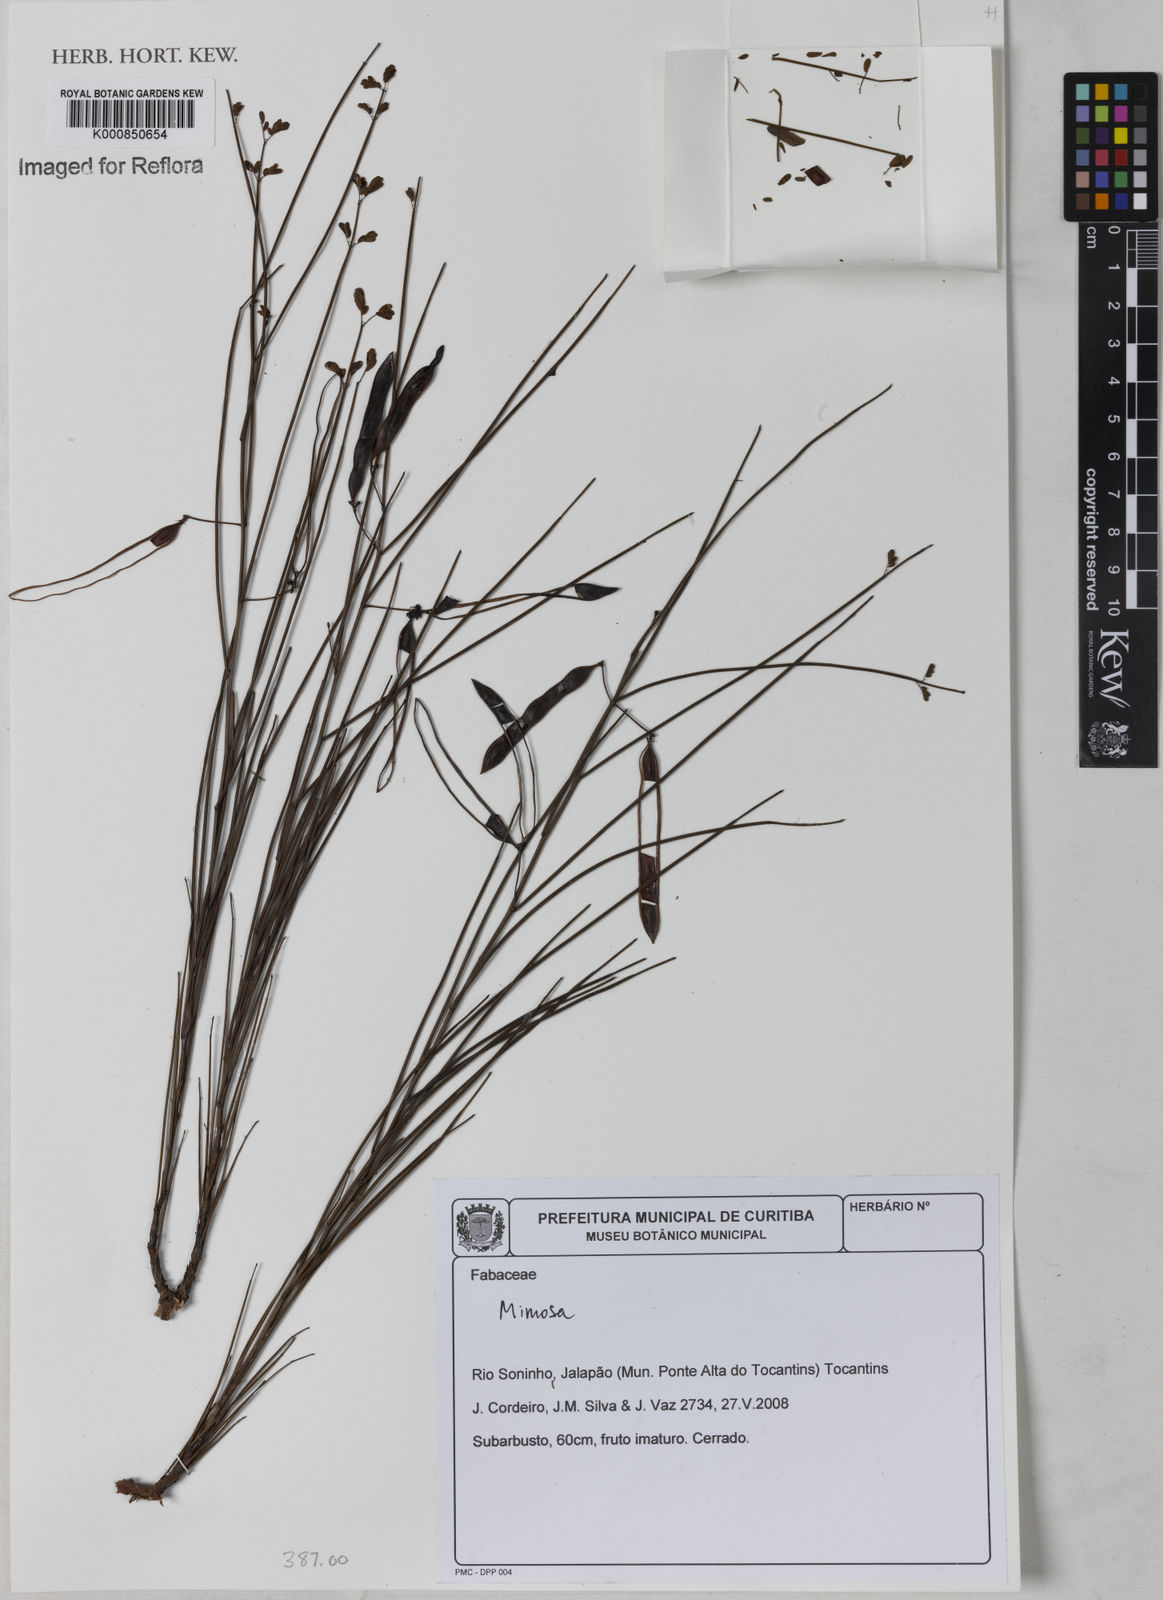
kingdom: Plantae
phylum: Tracheophyta
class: Magnoliopsida
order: Fabales
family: Fabaceae
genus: Mimosa
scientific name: Mimosa piptoptera
